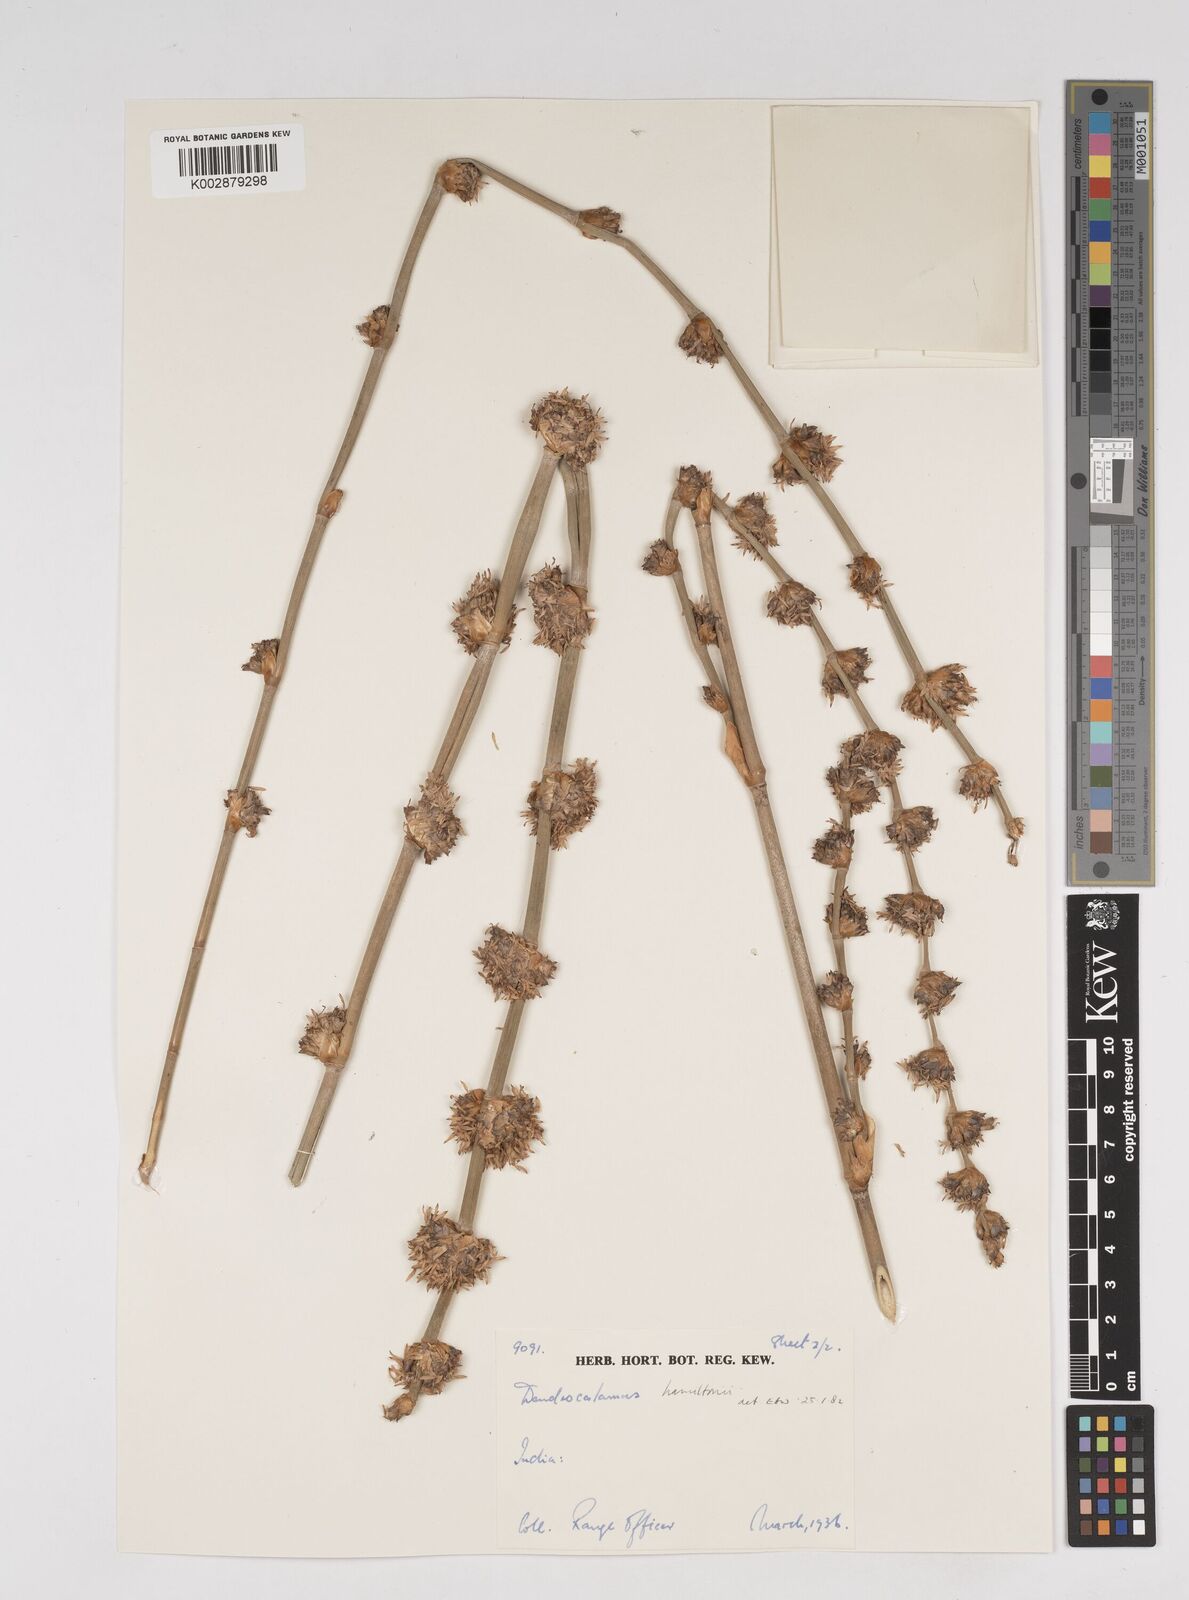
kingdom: Plantae
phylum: Tracheophyta
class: Liliopsida
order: Poales
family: Poaceae
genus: Dendrocalamus
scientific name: Dendrocalamus
